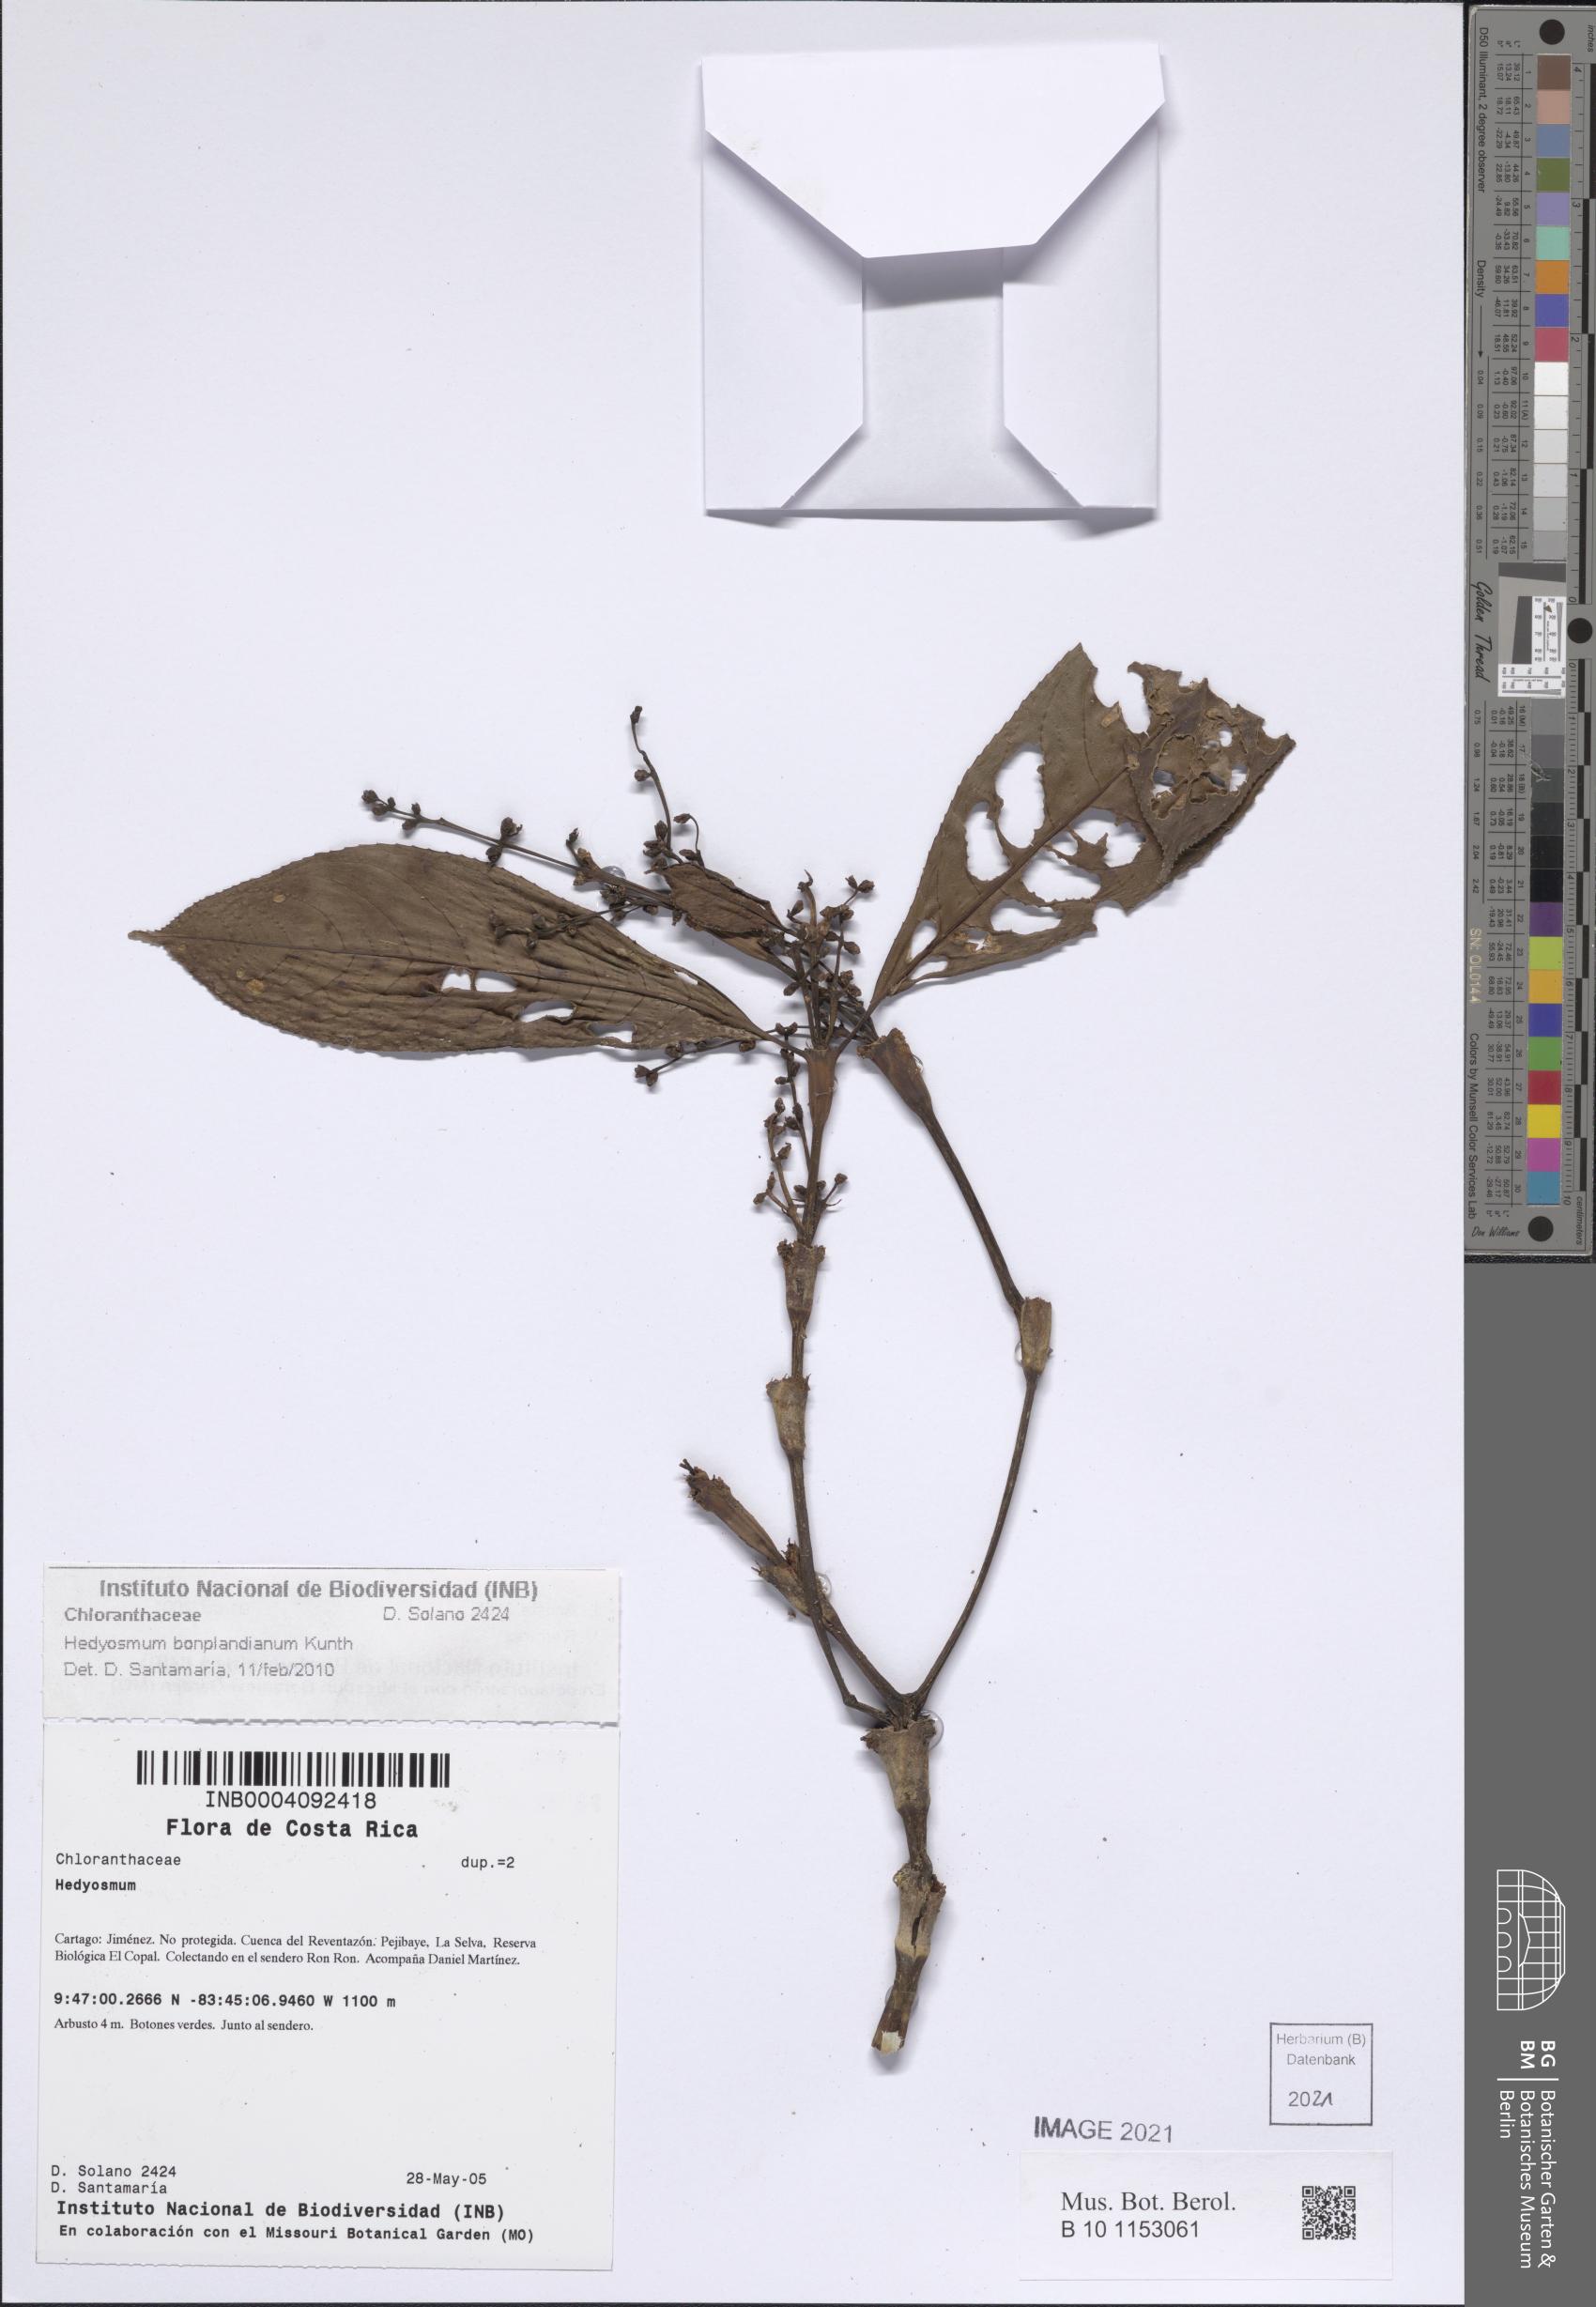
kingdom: Plantae
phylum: Tracheophyta
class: Magnoliopsida
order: Chloranthales
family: Chloranthaceae
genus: Hedyosmum
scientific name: Hedyosmum bonplandianum
